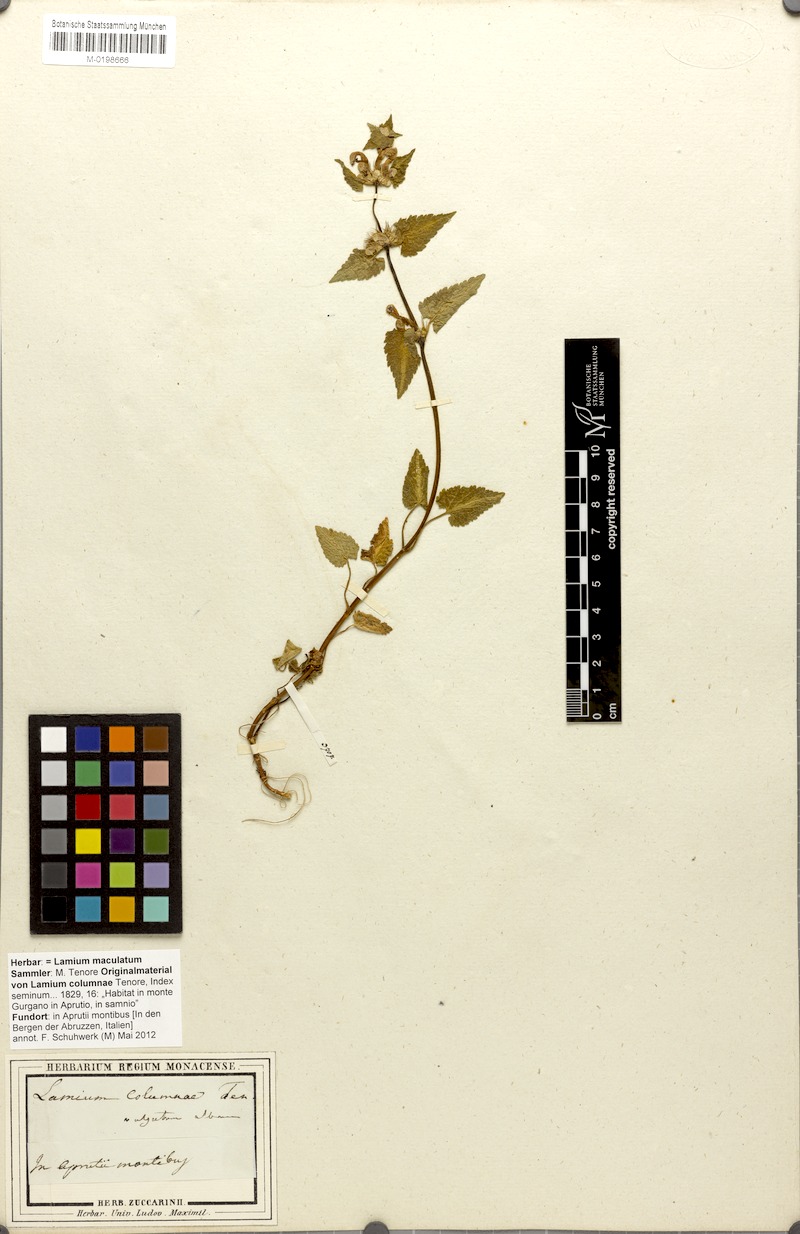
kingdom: Plantae
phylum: Tracheophyta
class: Magnoliopsida
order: Lamiales
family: Lamiaceae
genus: Lamium
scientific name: Lamium maculatum
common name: Spotted dead-nettle
